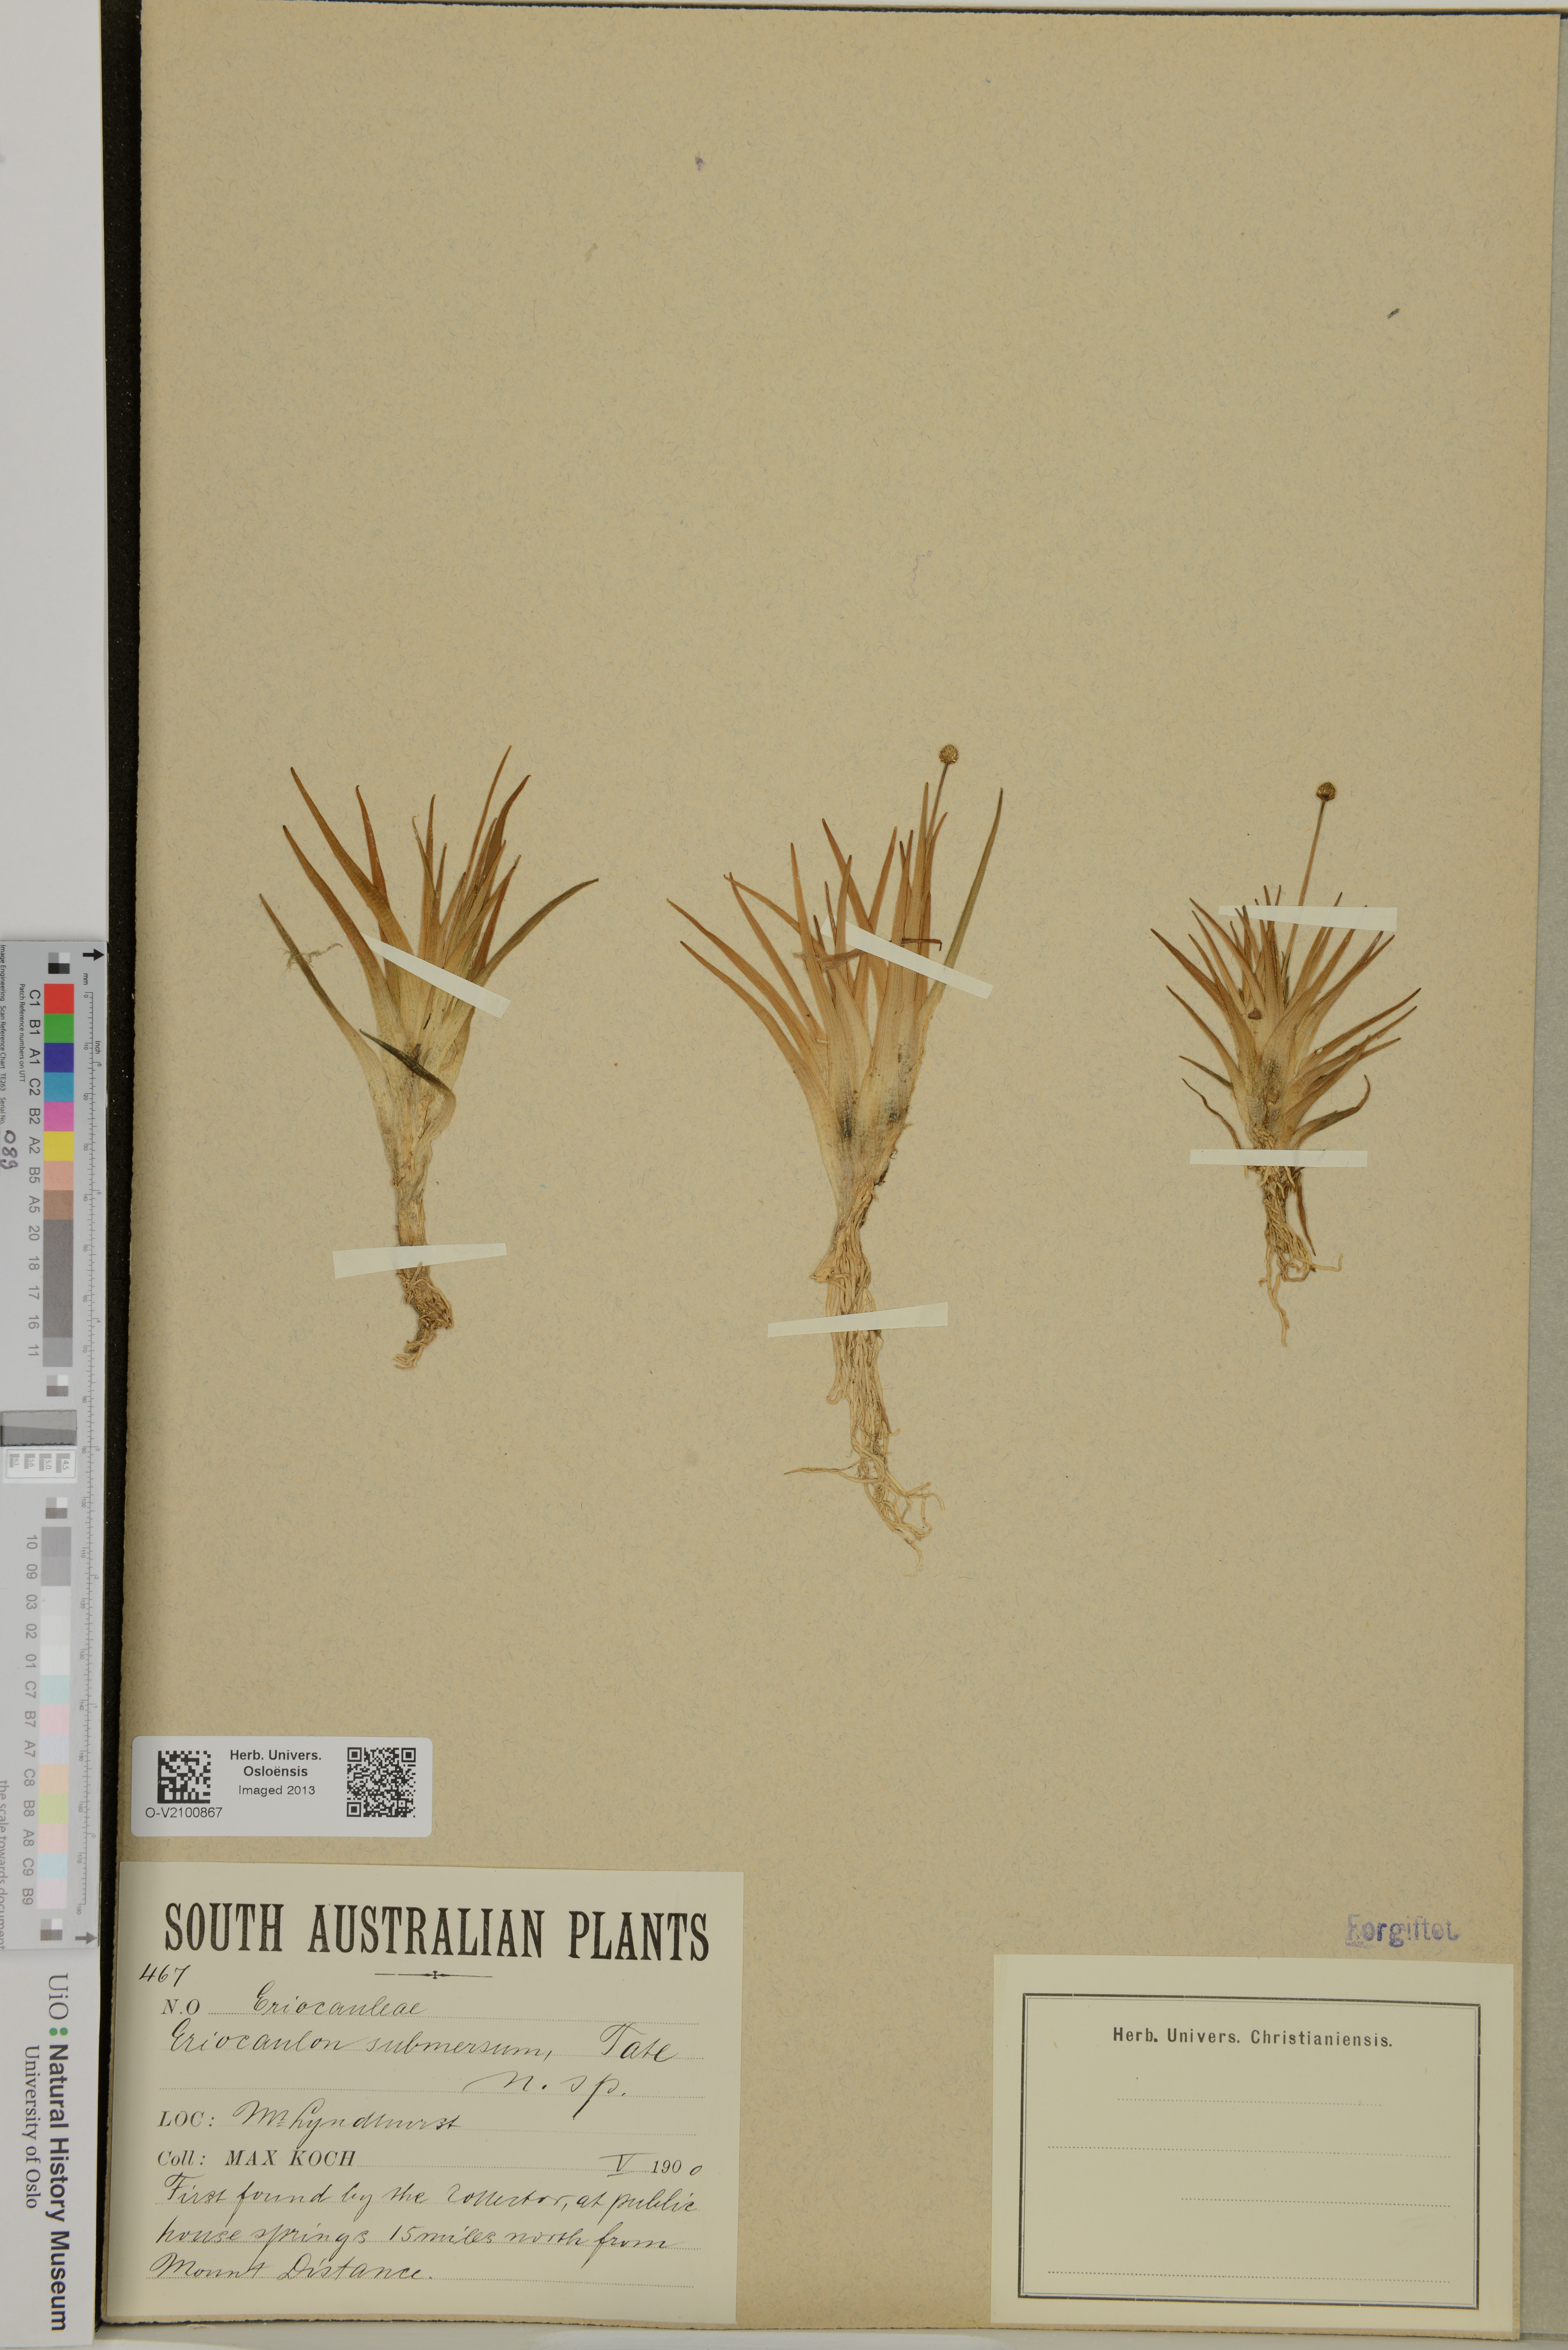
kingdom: Plantae
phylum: Tracheophyta
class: Liliopsida
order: Poales
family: Eriocaulaceae
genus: Eriocaulon
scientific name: Eriocaulon submersum
